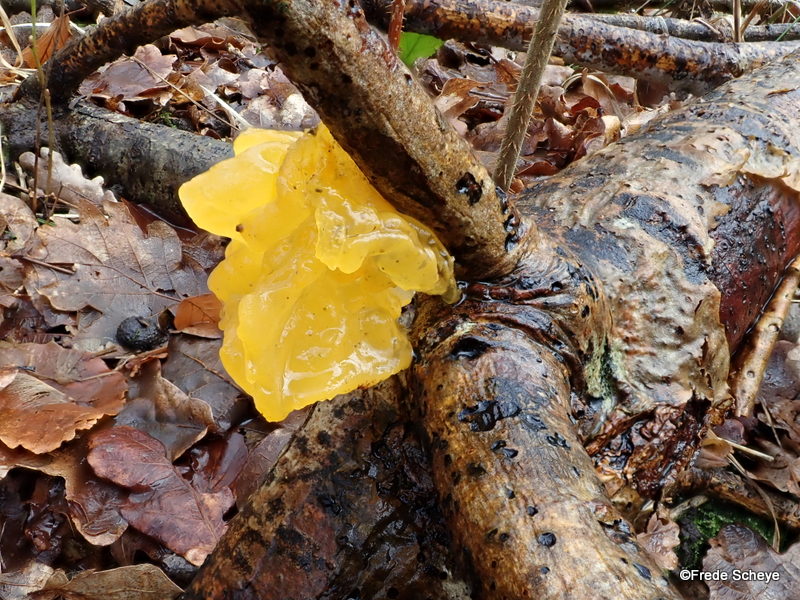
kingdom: Fungi
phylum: Basidiomycota
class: Tremellomycetes
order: Tremellales
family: Tremellaceae
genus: Tremella
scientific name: Tremella mesenterica
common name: gul bævresvamp
